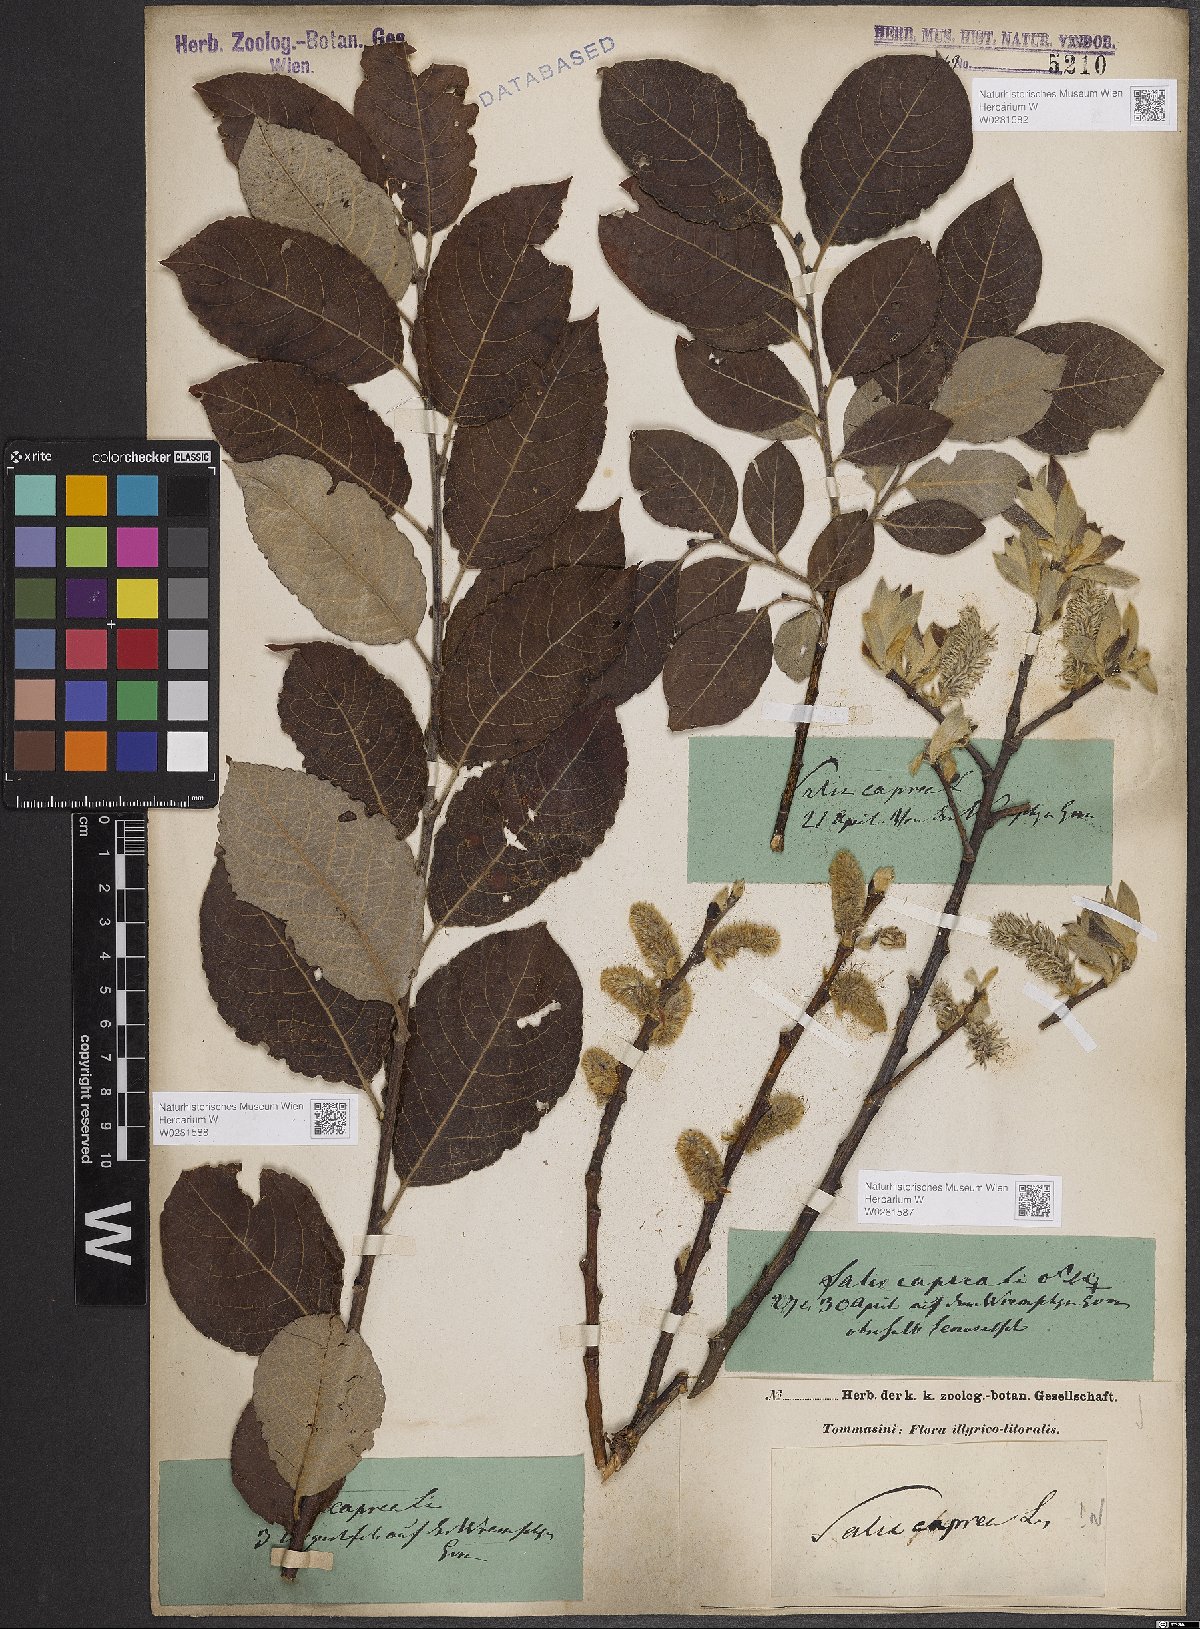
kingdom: Plantae
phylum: Tracheophyta
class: Magnoliopsida
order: Malpighiales
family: Salicaceae
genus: Salix
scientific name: Salix caprea
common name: Goat willow
